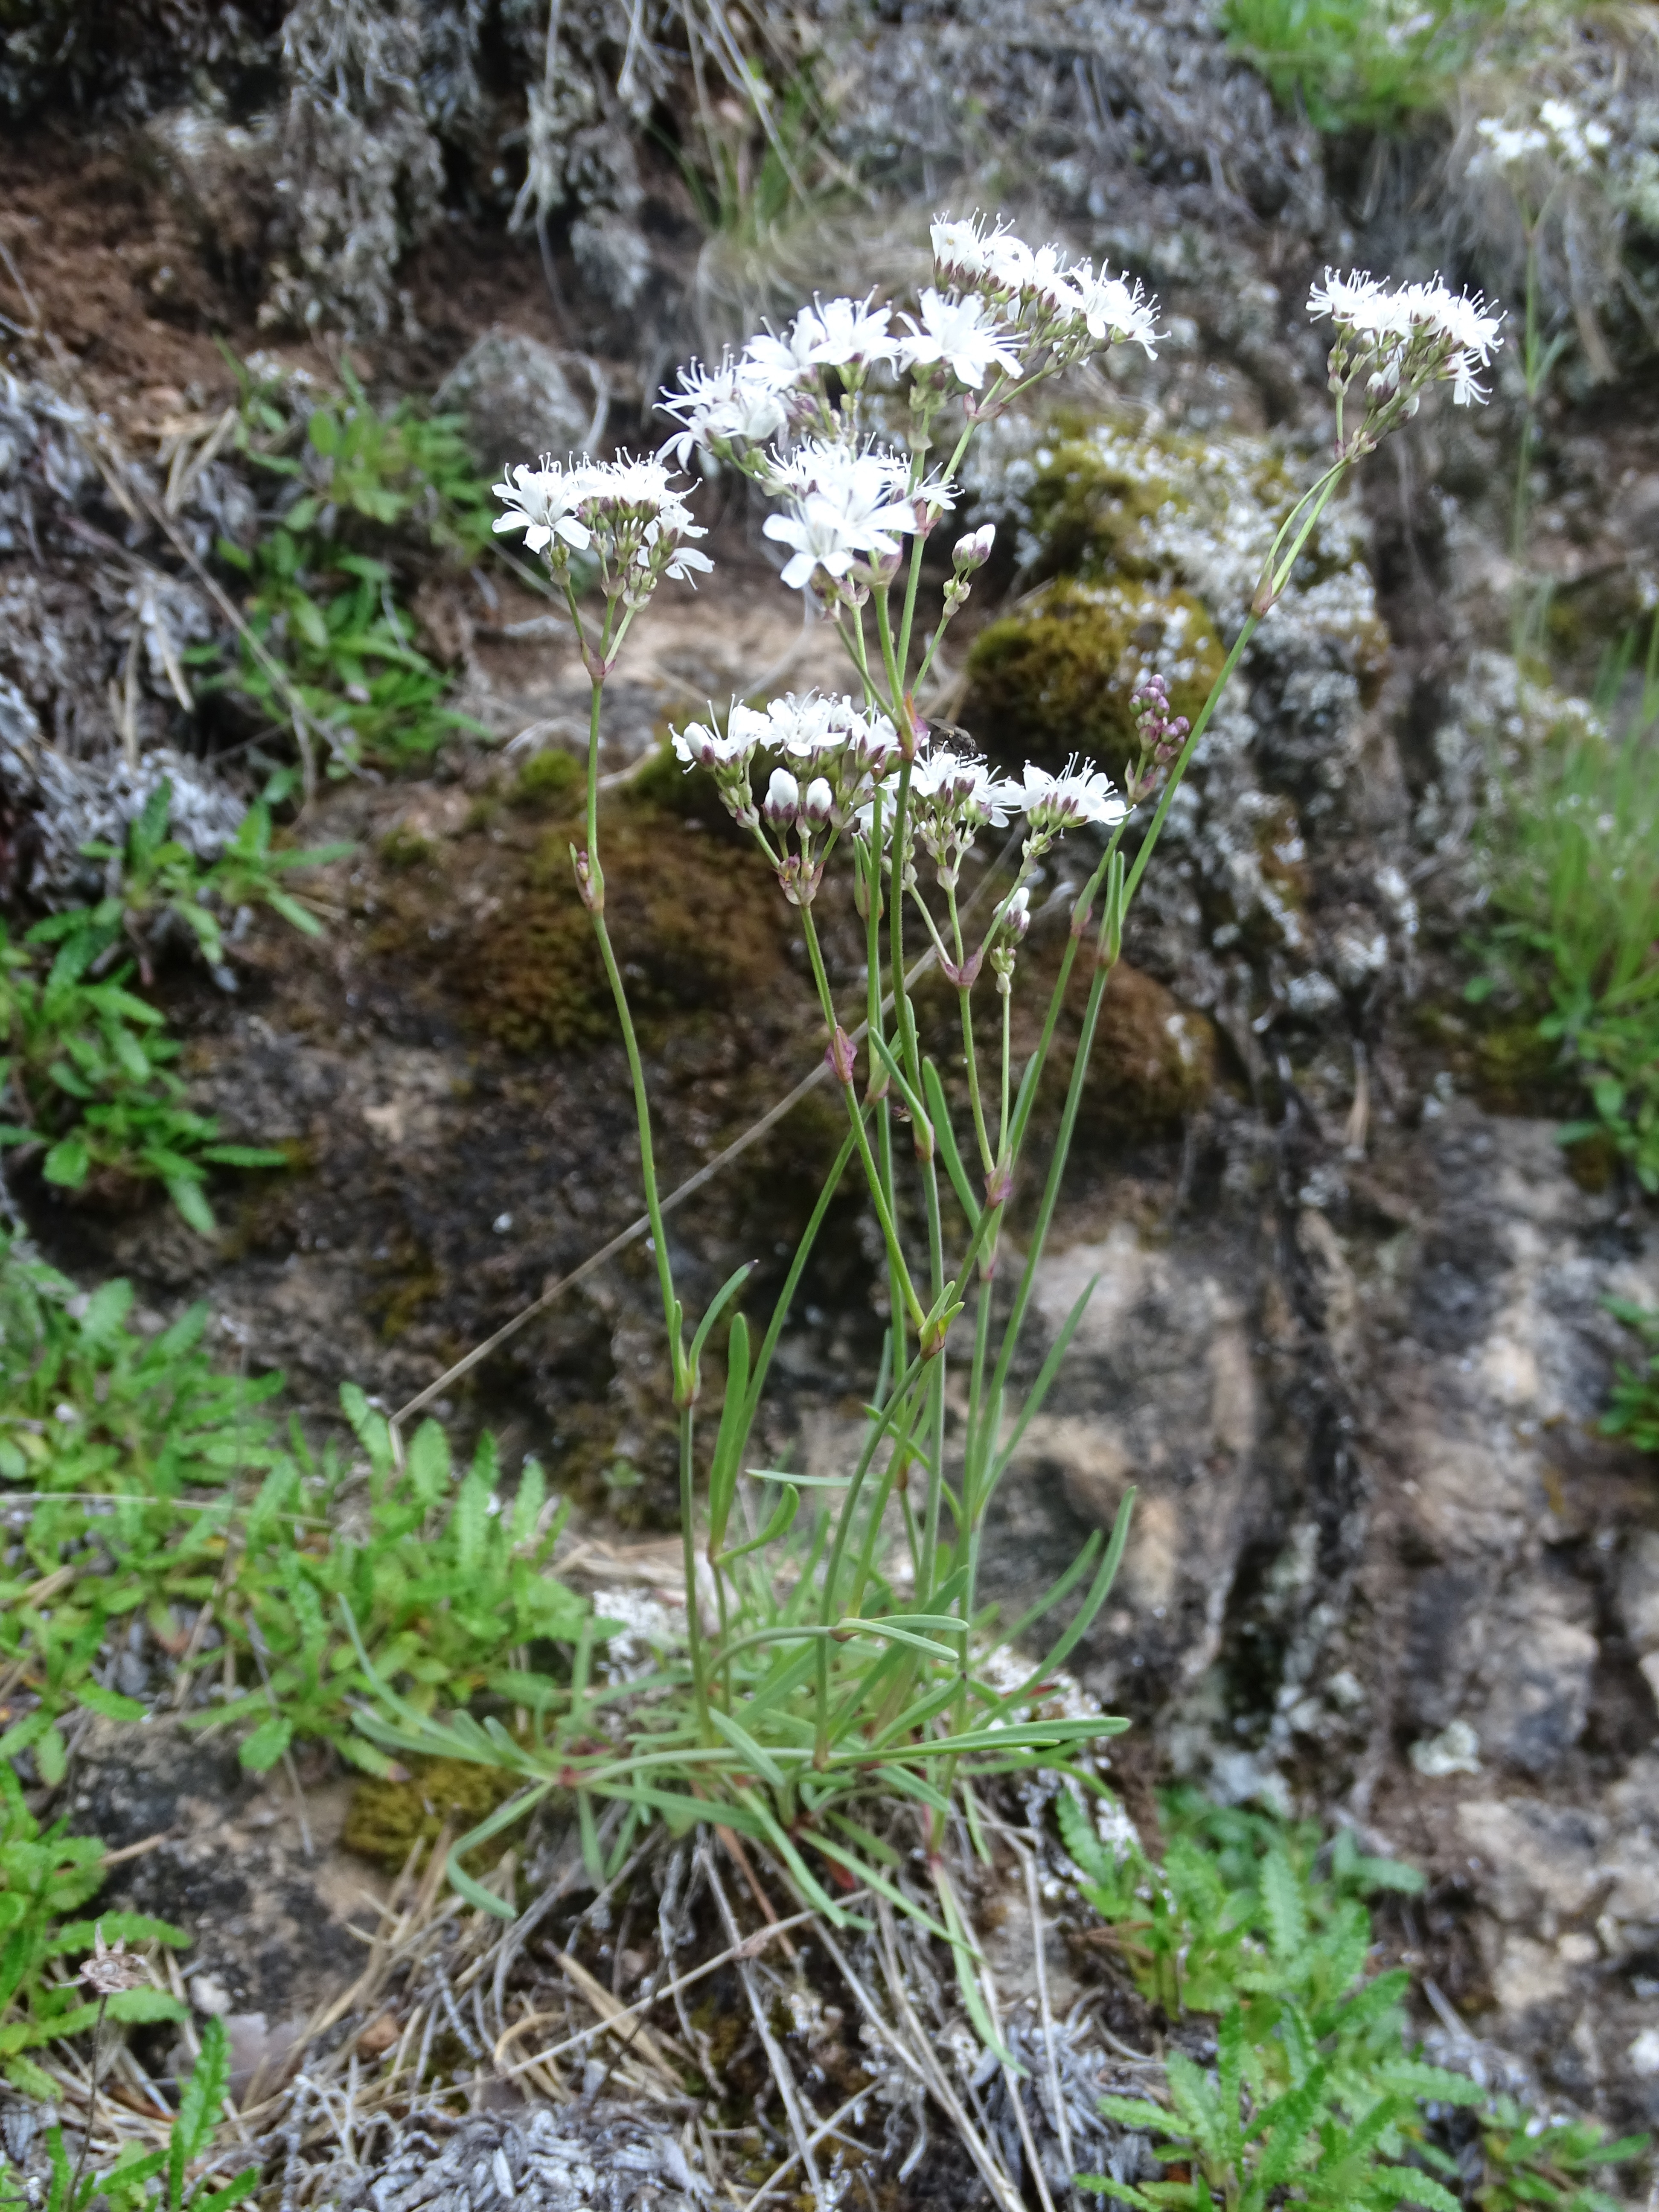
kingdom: Plantae
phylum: Tracheophyta
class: Magnoliopsida
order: Caryophyllales
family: Caryophyllaceae
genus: Gypsophila
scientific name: Gypsophila fastigiata
